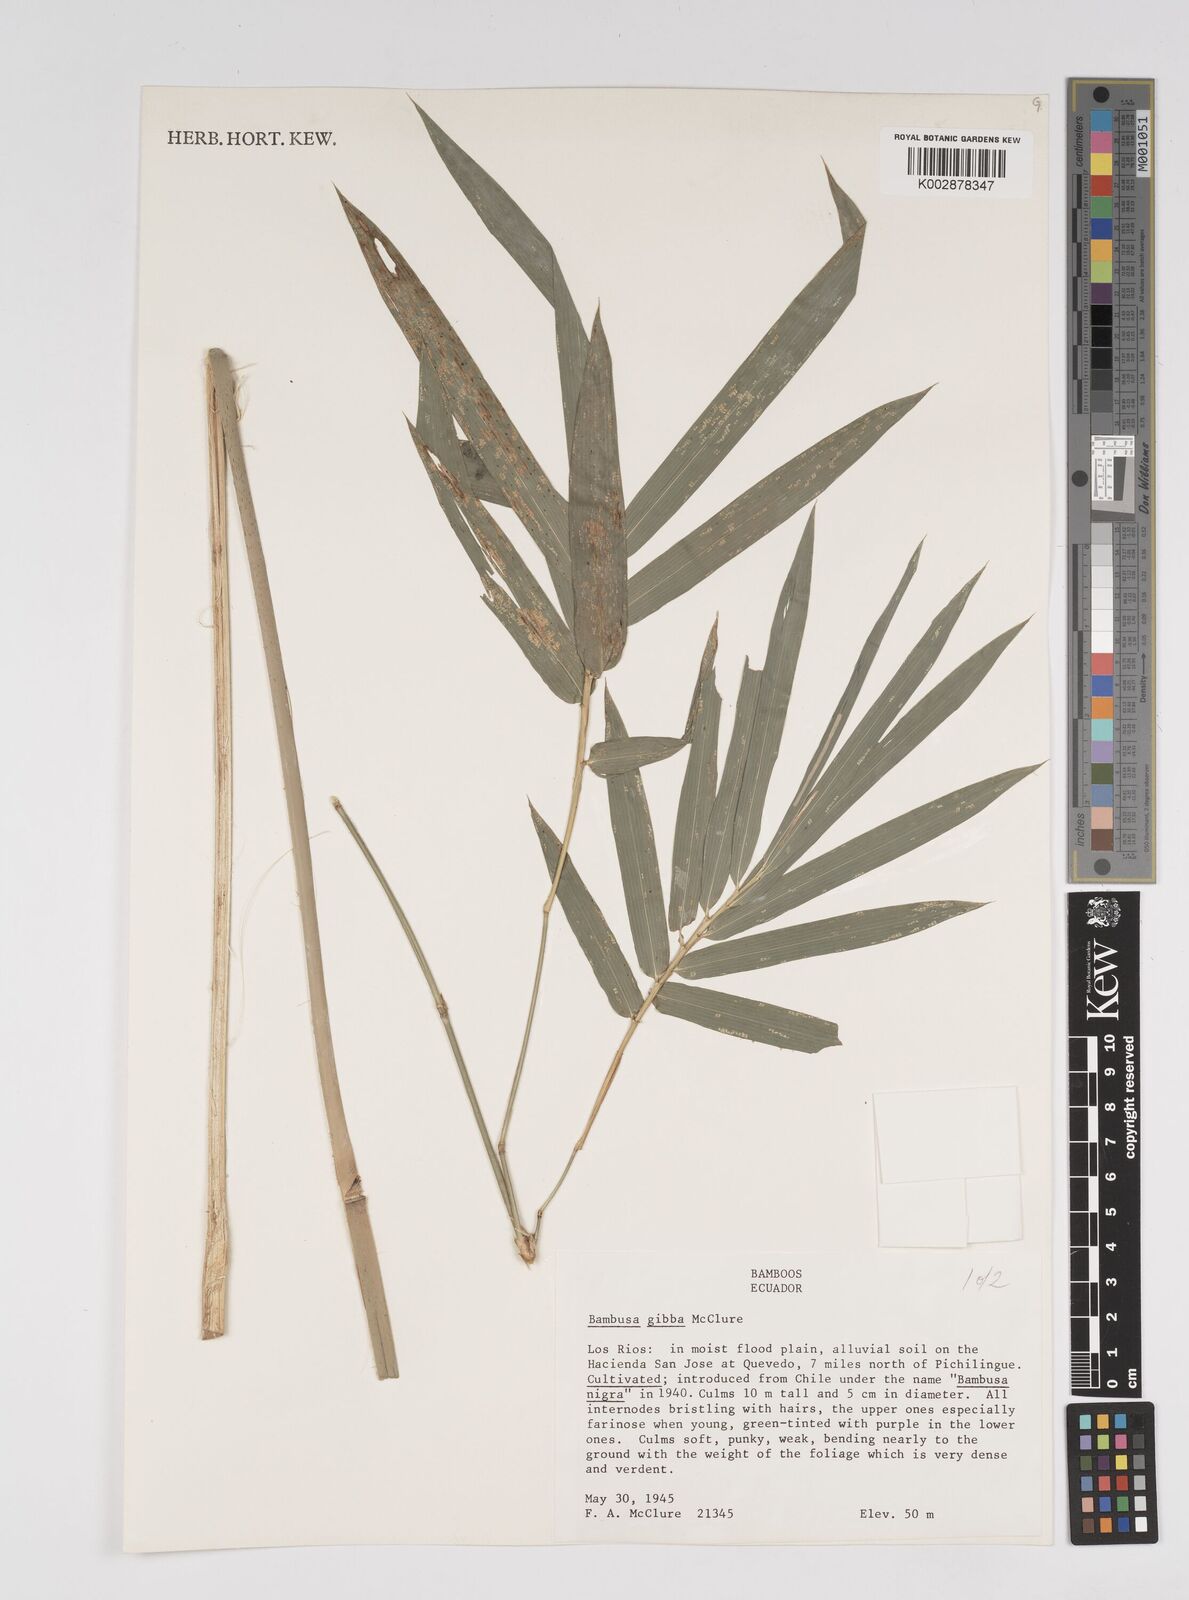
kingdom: Plantae
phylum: Tracheophyta
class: Liliopsida
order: Poales
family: Poaceae
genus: Bambusa
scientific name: Bambusa gibba
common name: Nai bamboo
